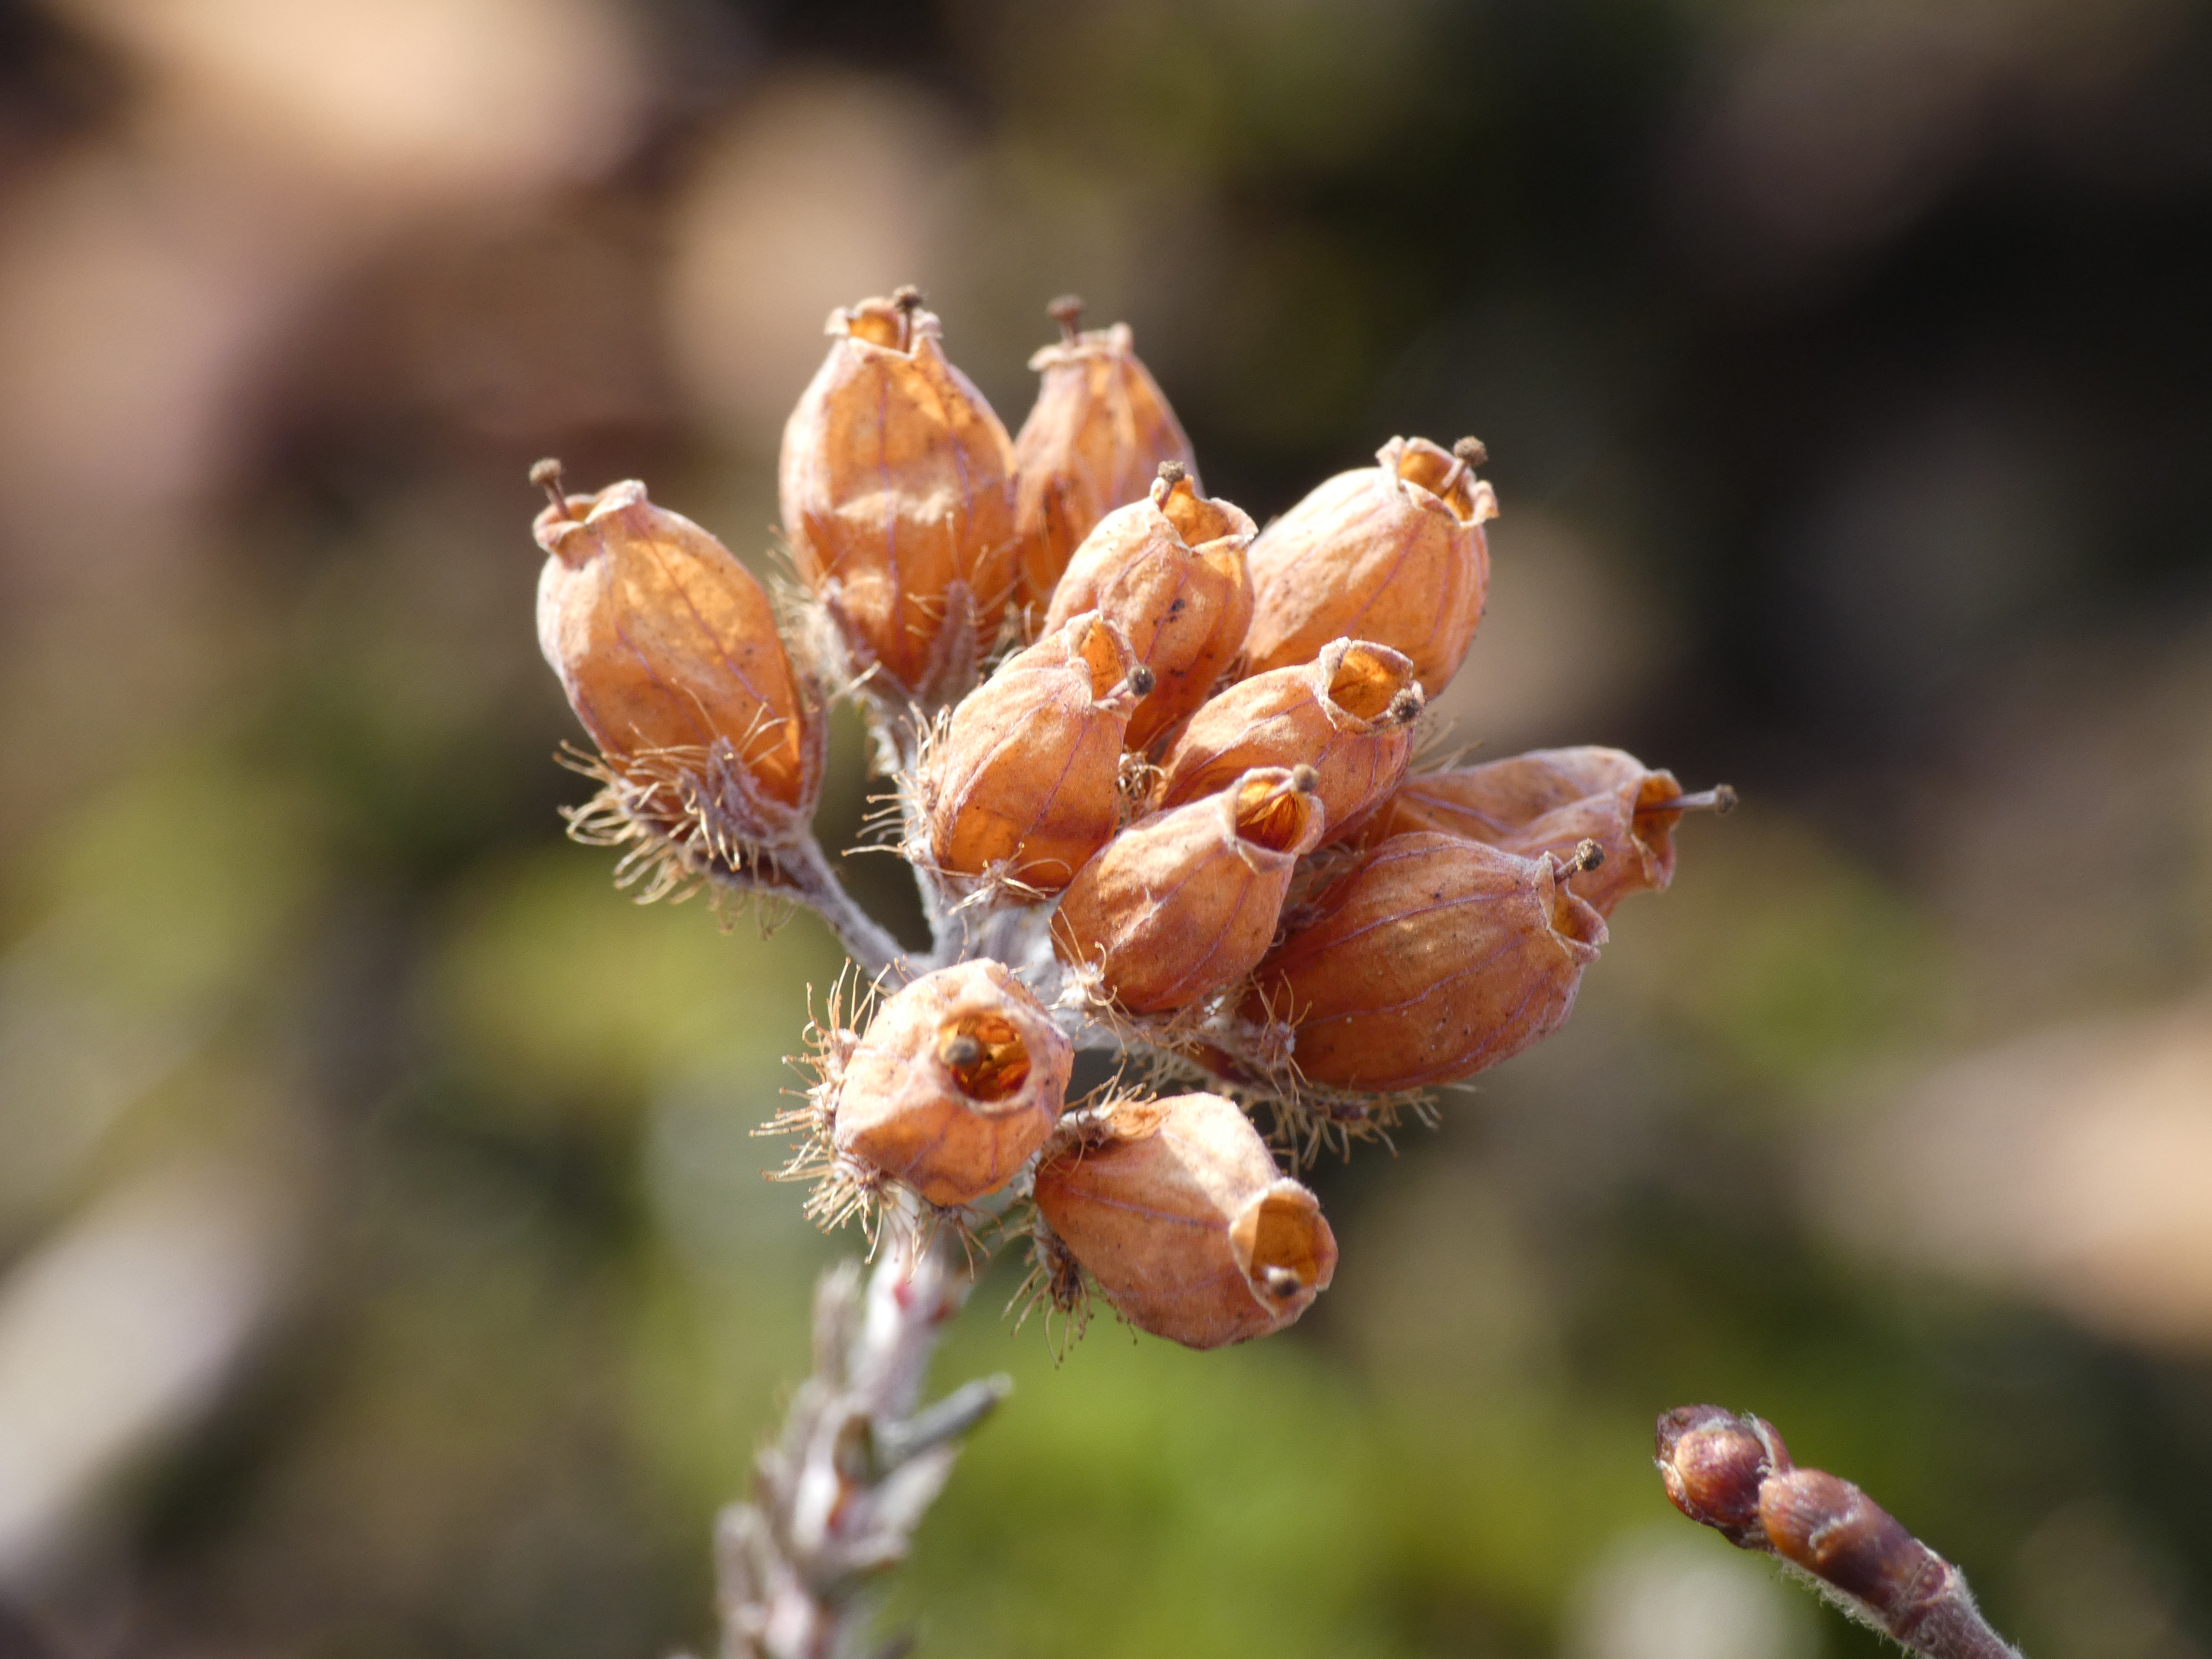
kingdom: Plantae
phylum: Tracheophyta
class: Magnoliopsida
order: Ericales
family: Ericaceae
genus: Erica
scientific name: Erica tetralix
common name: Klokkelyng
